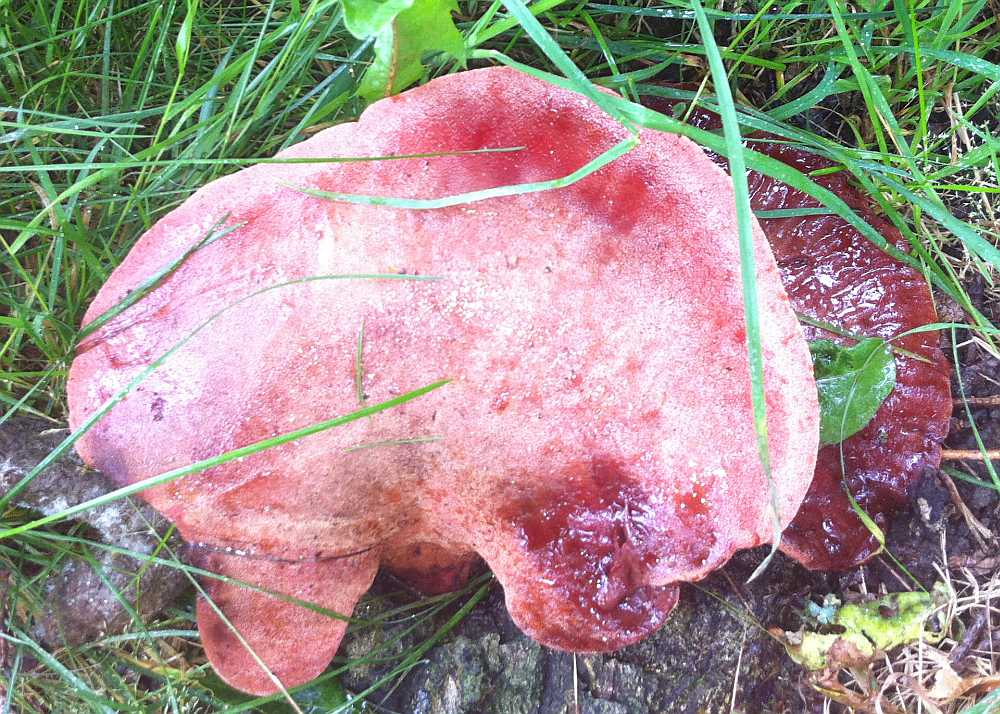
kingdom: Fungi
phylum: Basidiomycota
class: Agaricomycetes
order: Agaricales
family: Fistulinaceae
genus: Fistulina
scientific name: Fistulina hepatica
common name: oksetunge
